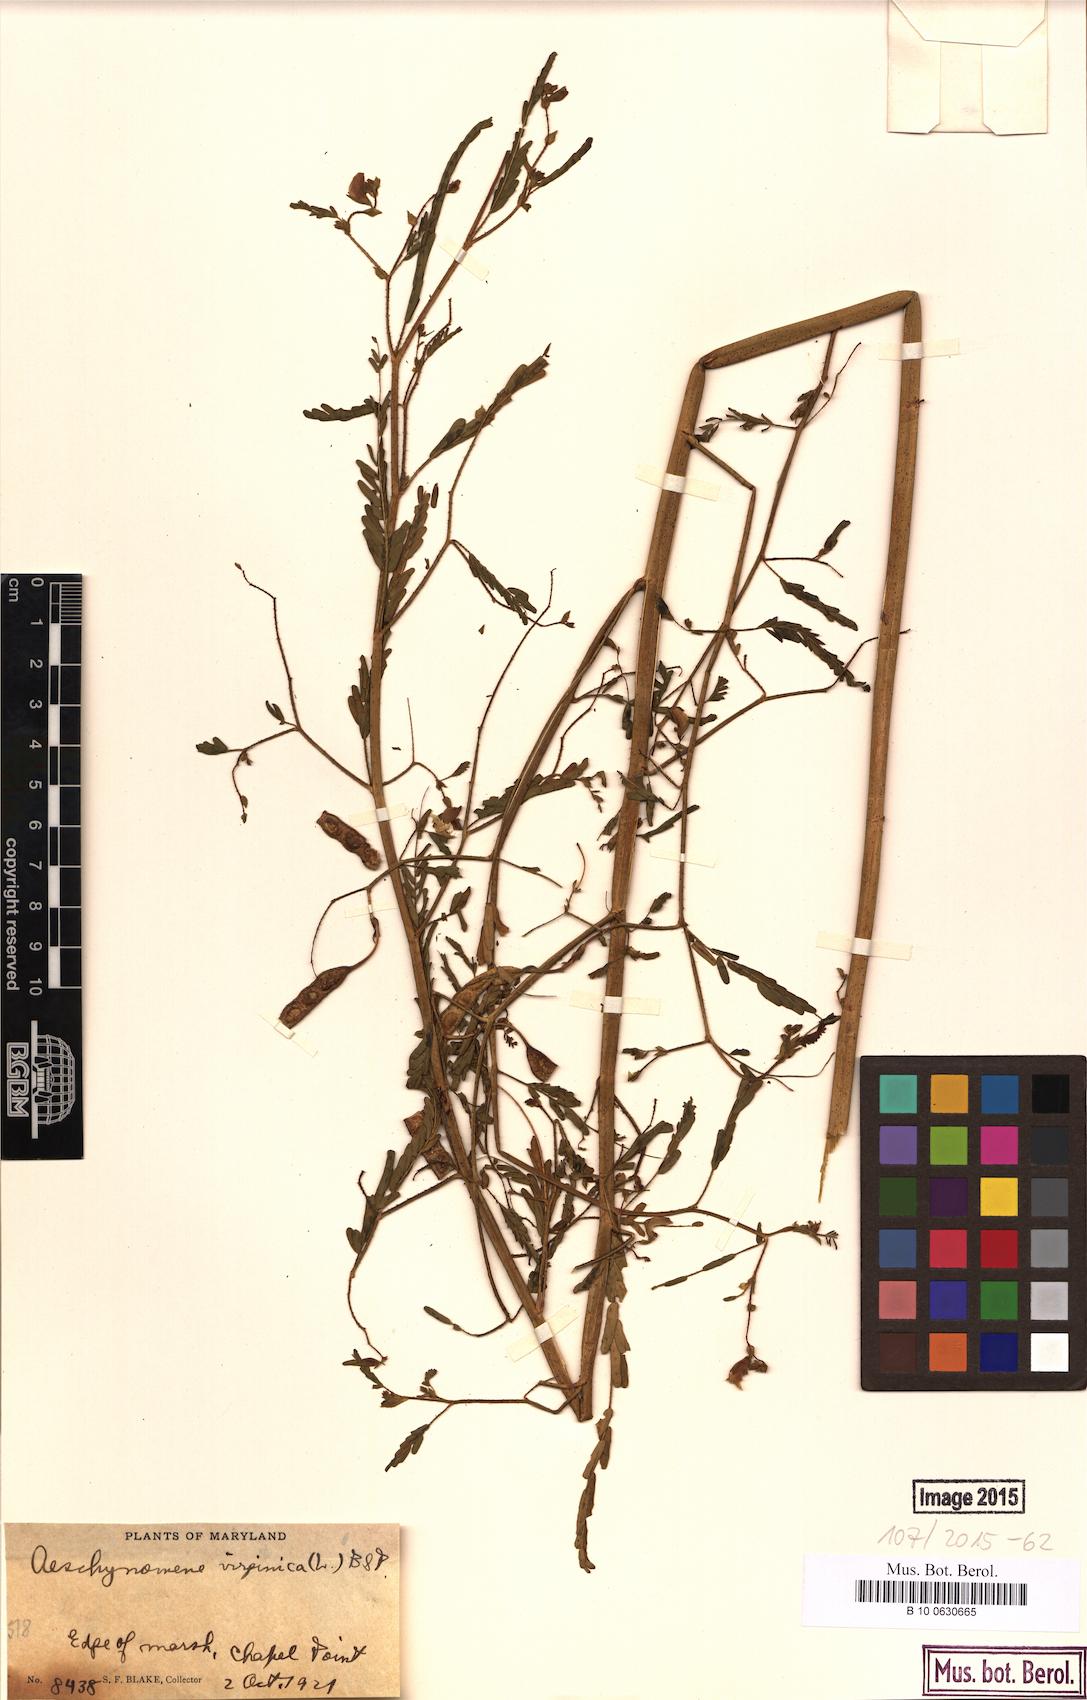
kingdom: Plantae
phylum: Tracheophyta
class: Magnoliopsida
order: Fabales
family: Fabaceae
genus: Aeschynomene
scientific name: Aeschynomene virginica
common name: Sensitive joint-vetch
